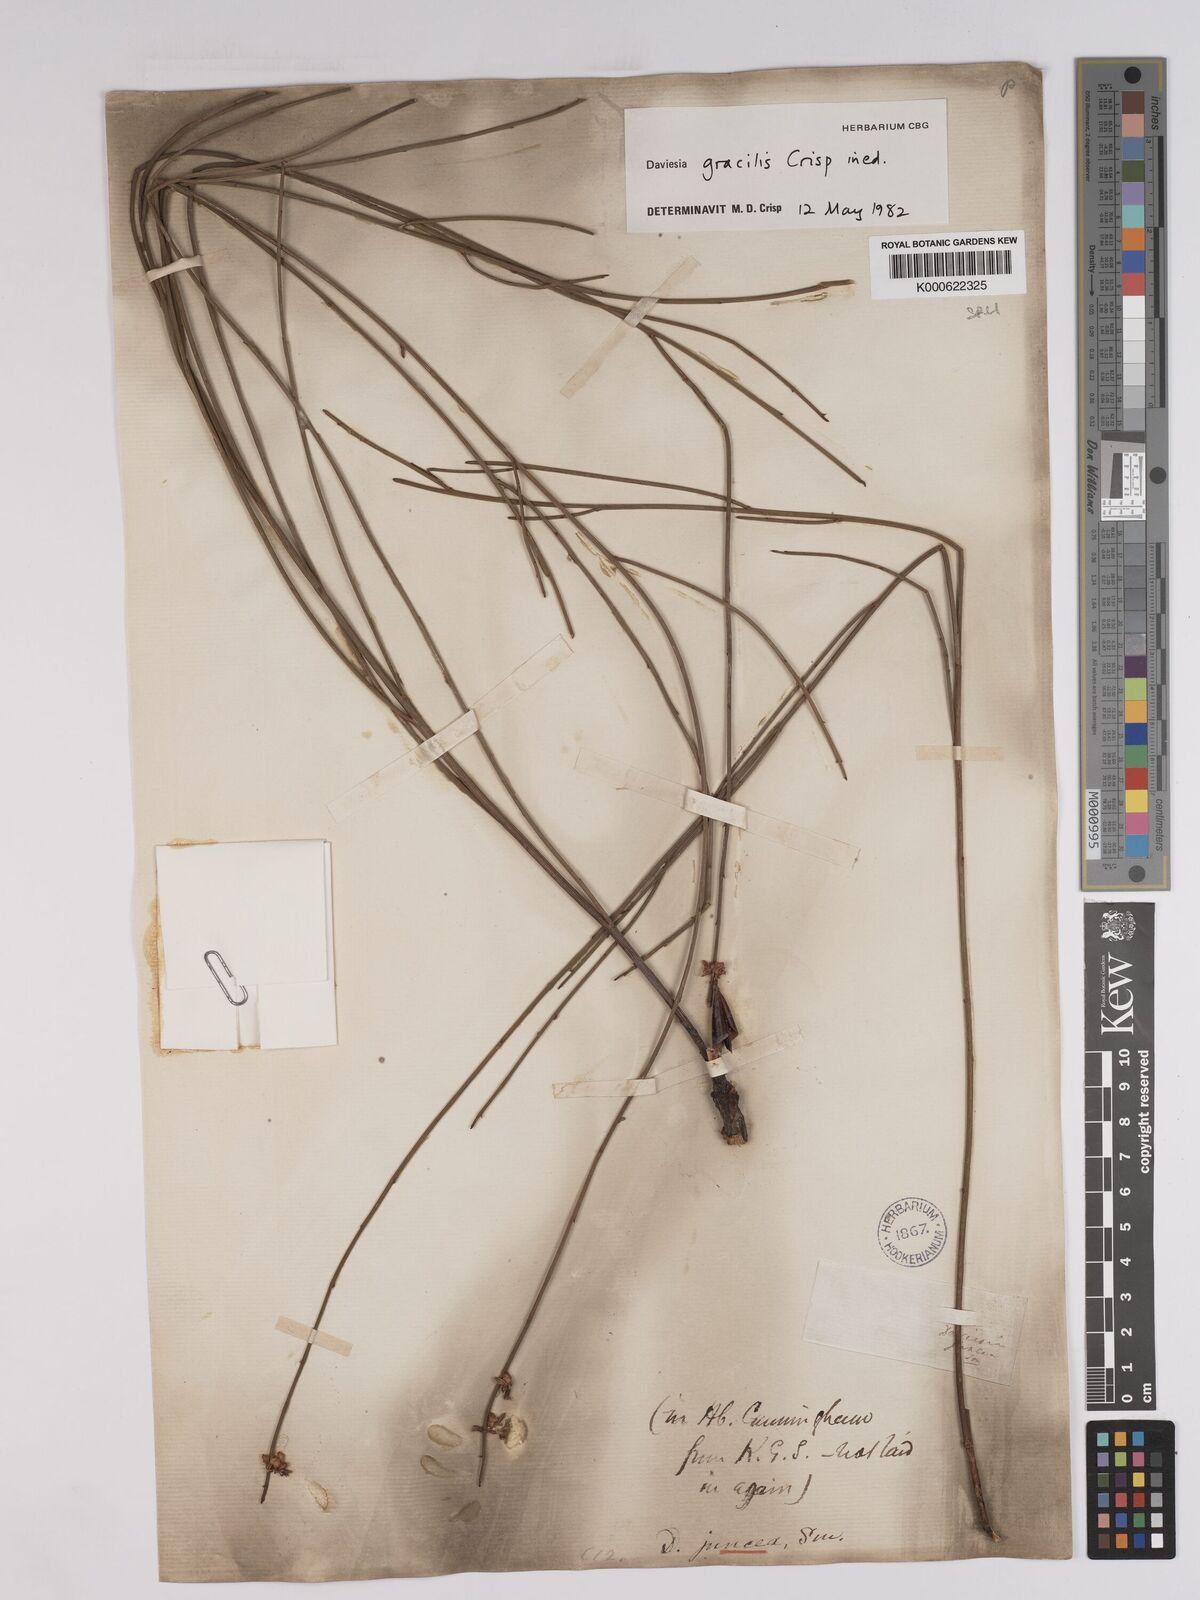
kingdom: Plantae
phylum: Tracheophyta
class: Magnoliopsida
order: Fabales
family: Fabaceae
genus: Daviesia
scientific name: Daviesia gracilis
